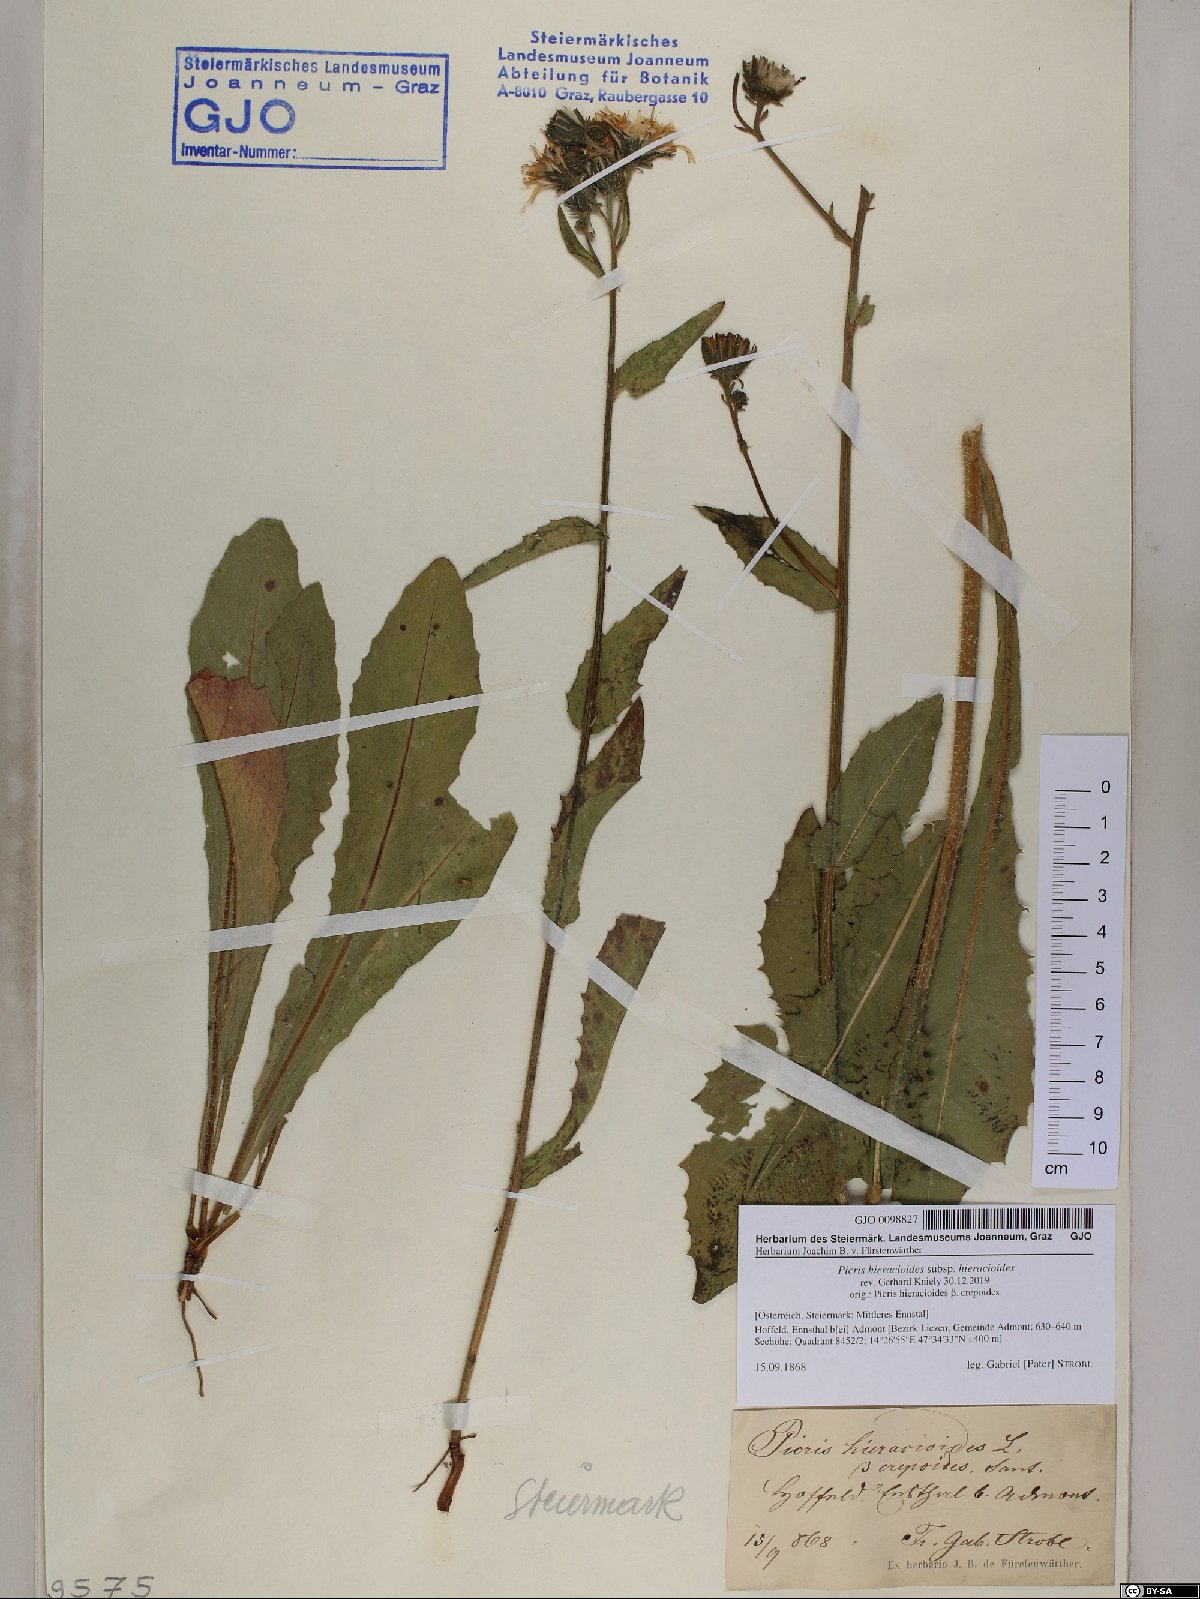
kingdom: Plantae
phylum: Tracheophyta
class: Magnoliopsida
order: Asterales
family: Asteraceae
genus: Picris
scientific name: Picris hieracioides
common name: Hawkweed oxtongue
